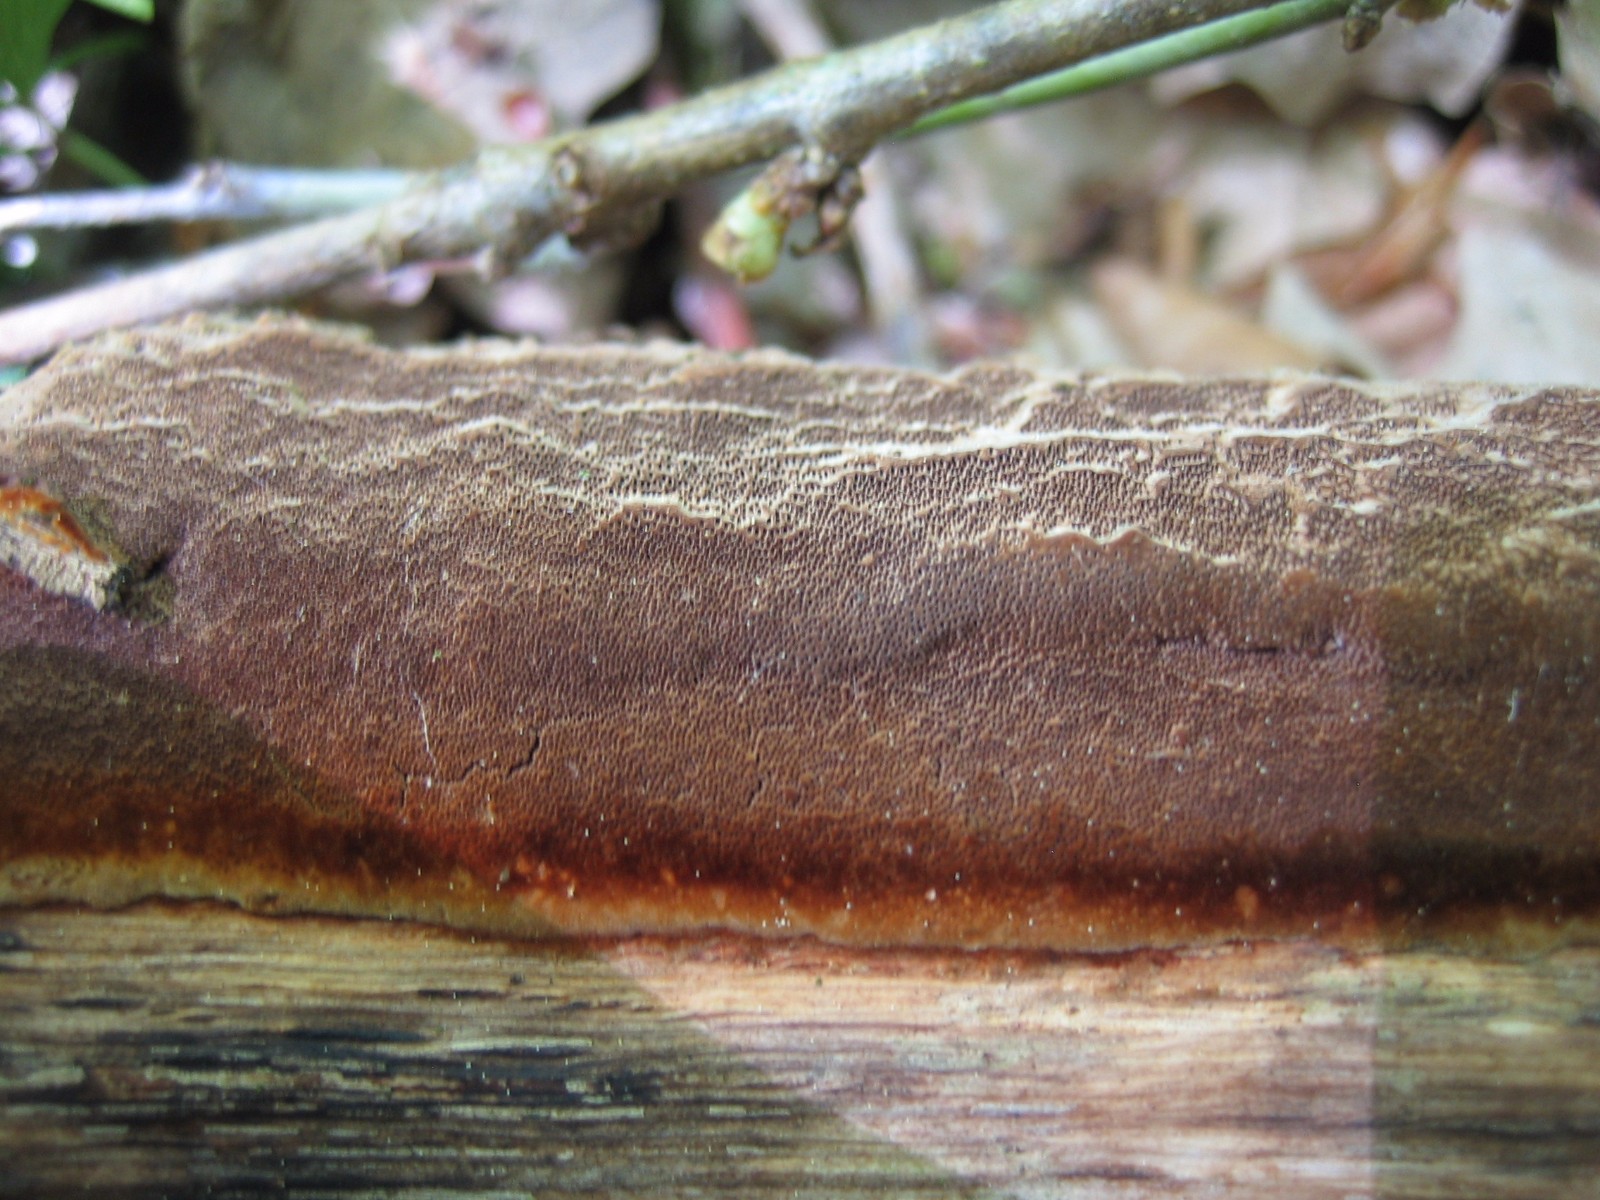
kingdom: Fungi
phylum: Basidiomycota
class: Agaricomycetes
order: Hymenochaetales
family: Hymenochaetaceae
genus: Fuscoporia
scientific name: Fuscoporia ferrea
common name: skorpe-ildporesvamp
